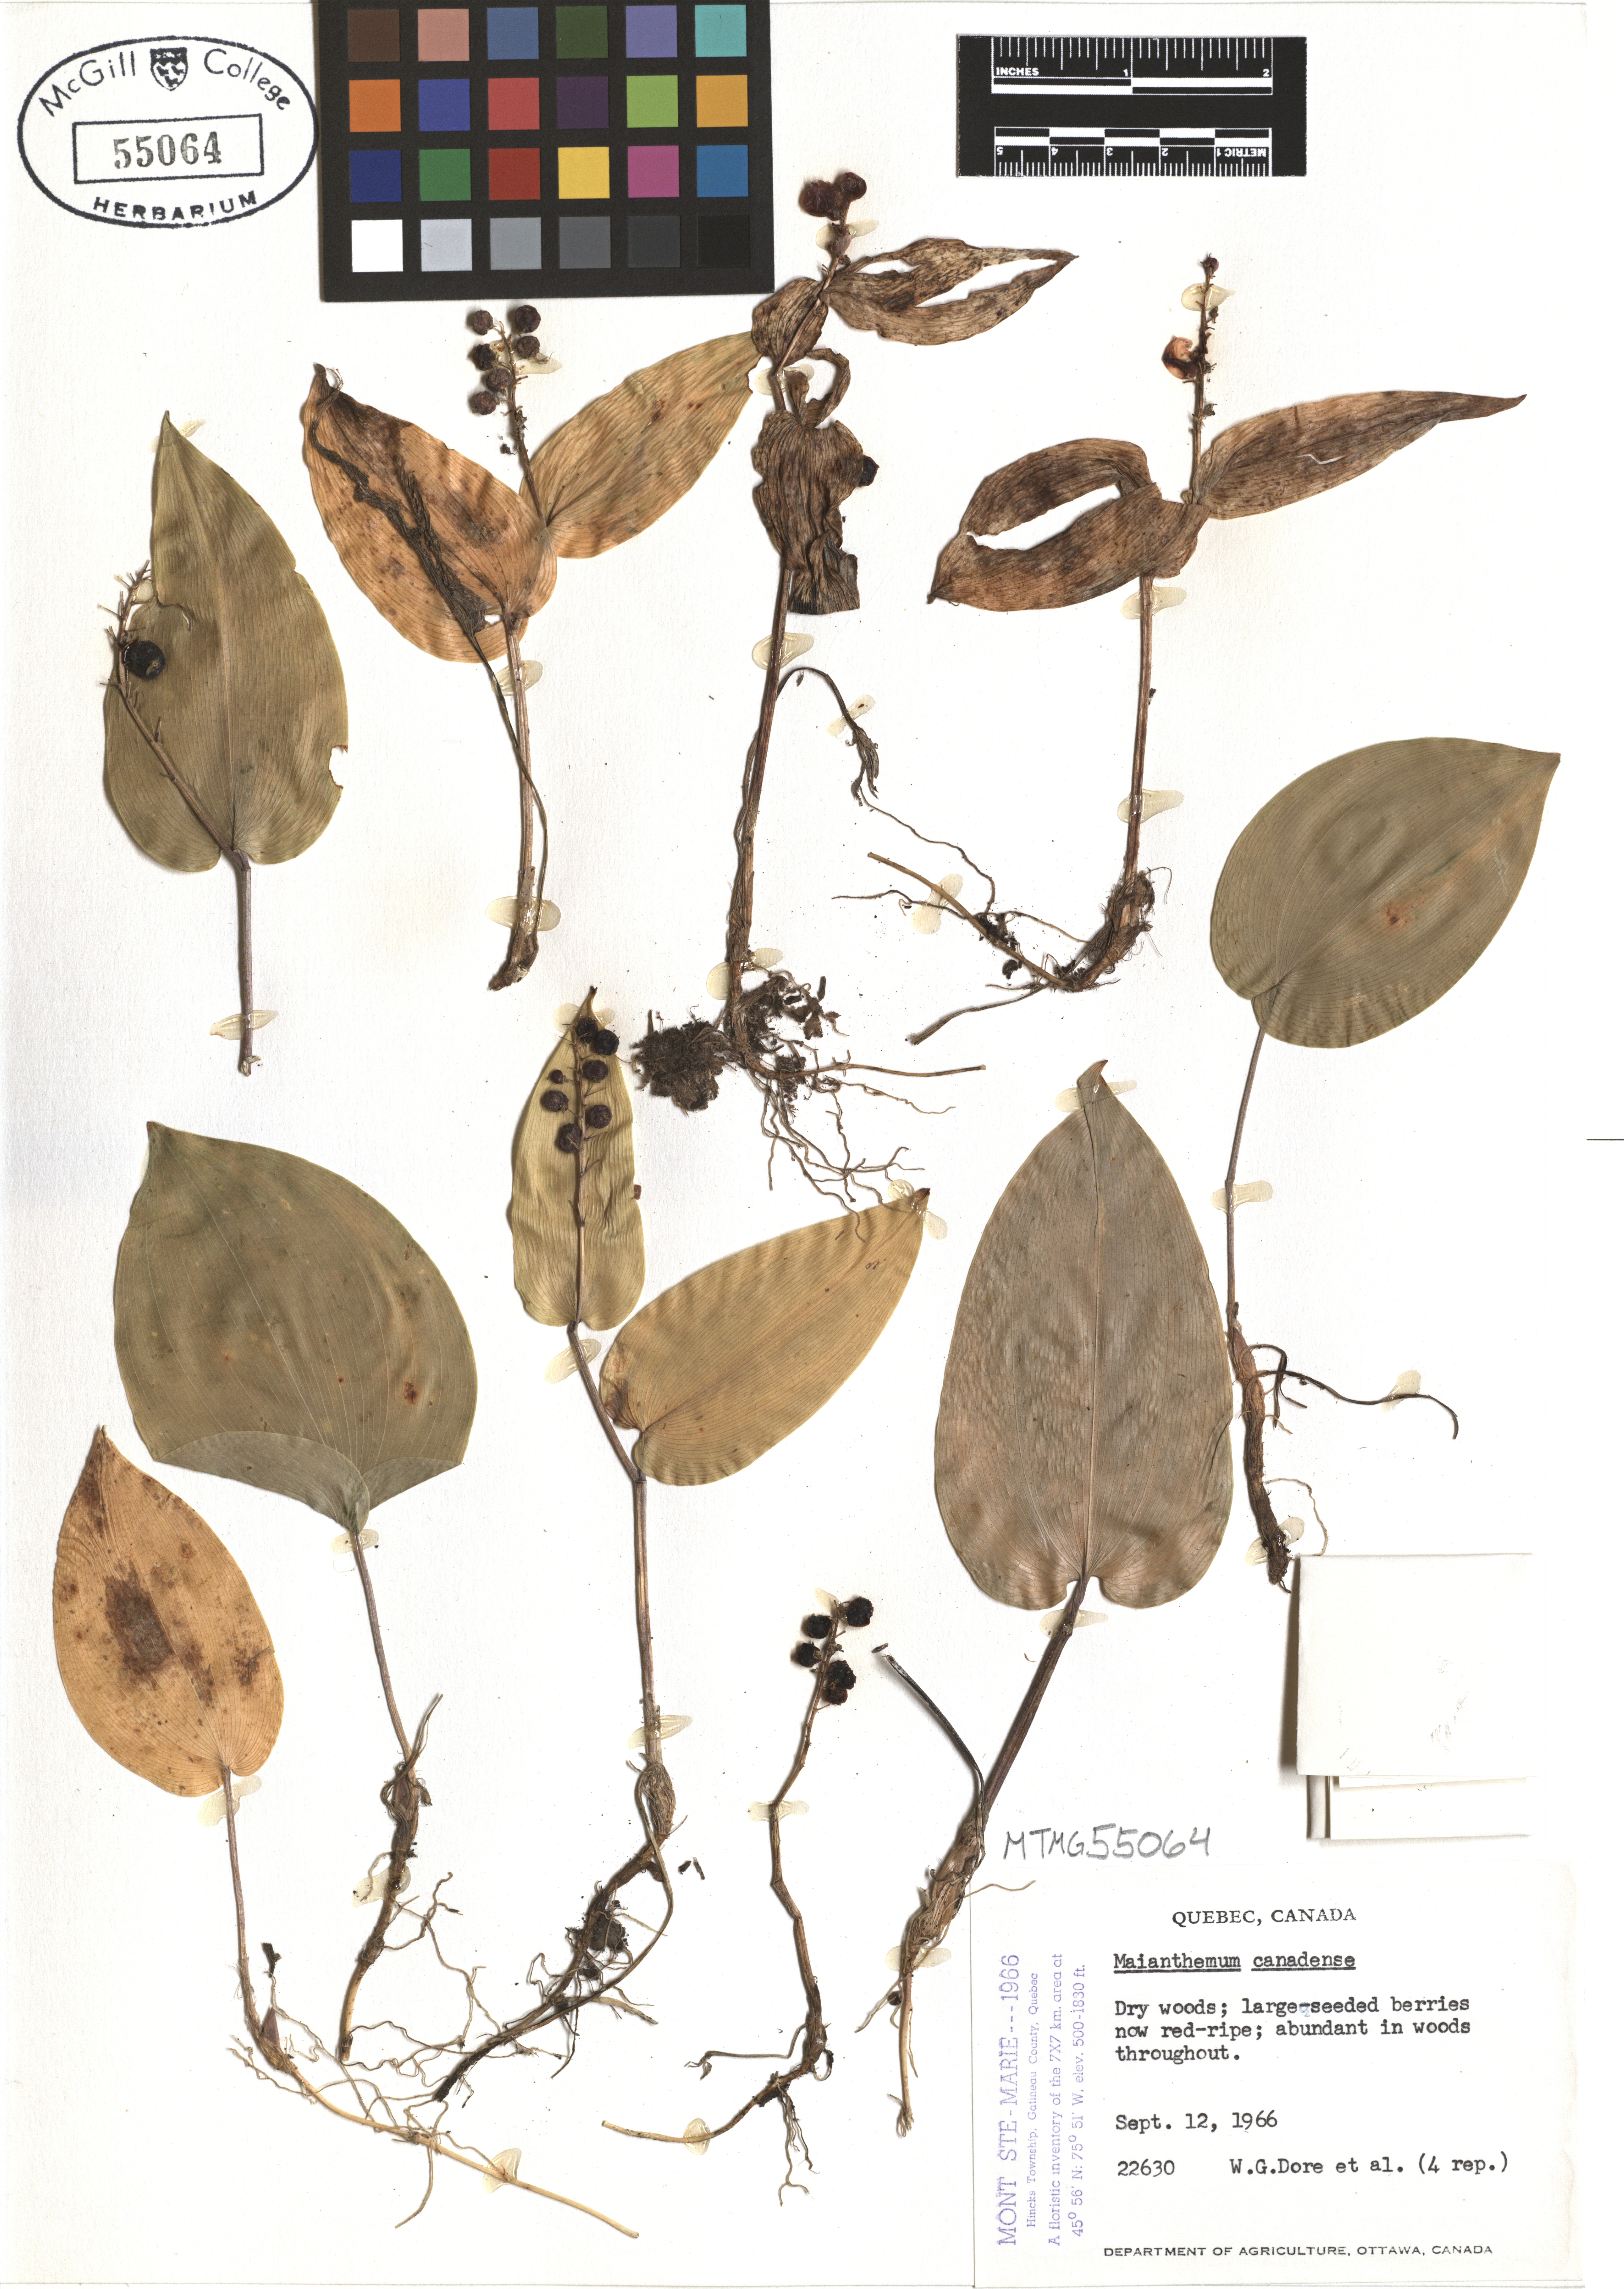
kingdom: Plantae
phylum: Tracheophyta
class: Liliopsida
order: Asparagales
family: Asparagaceae
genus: Maianthemum
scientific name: Maianthemum canadense
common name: False lily-of-the-valley
